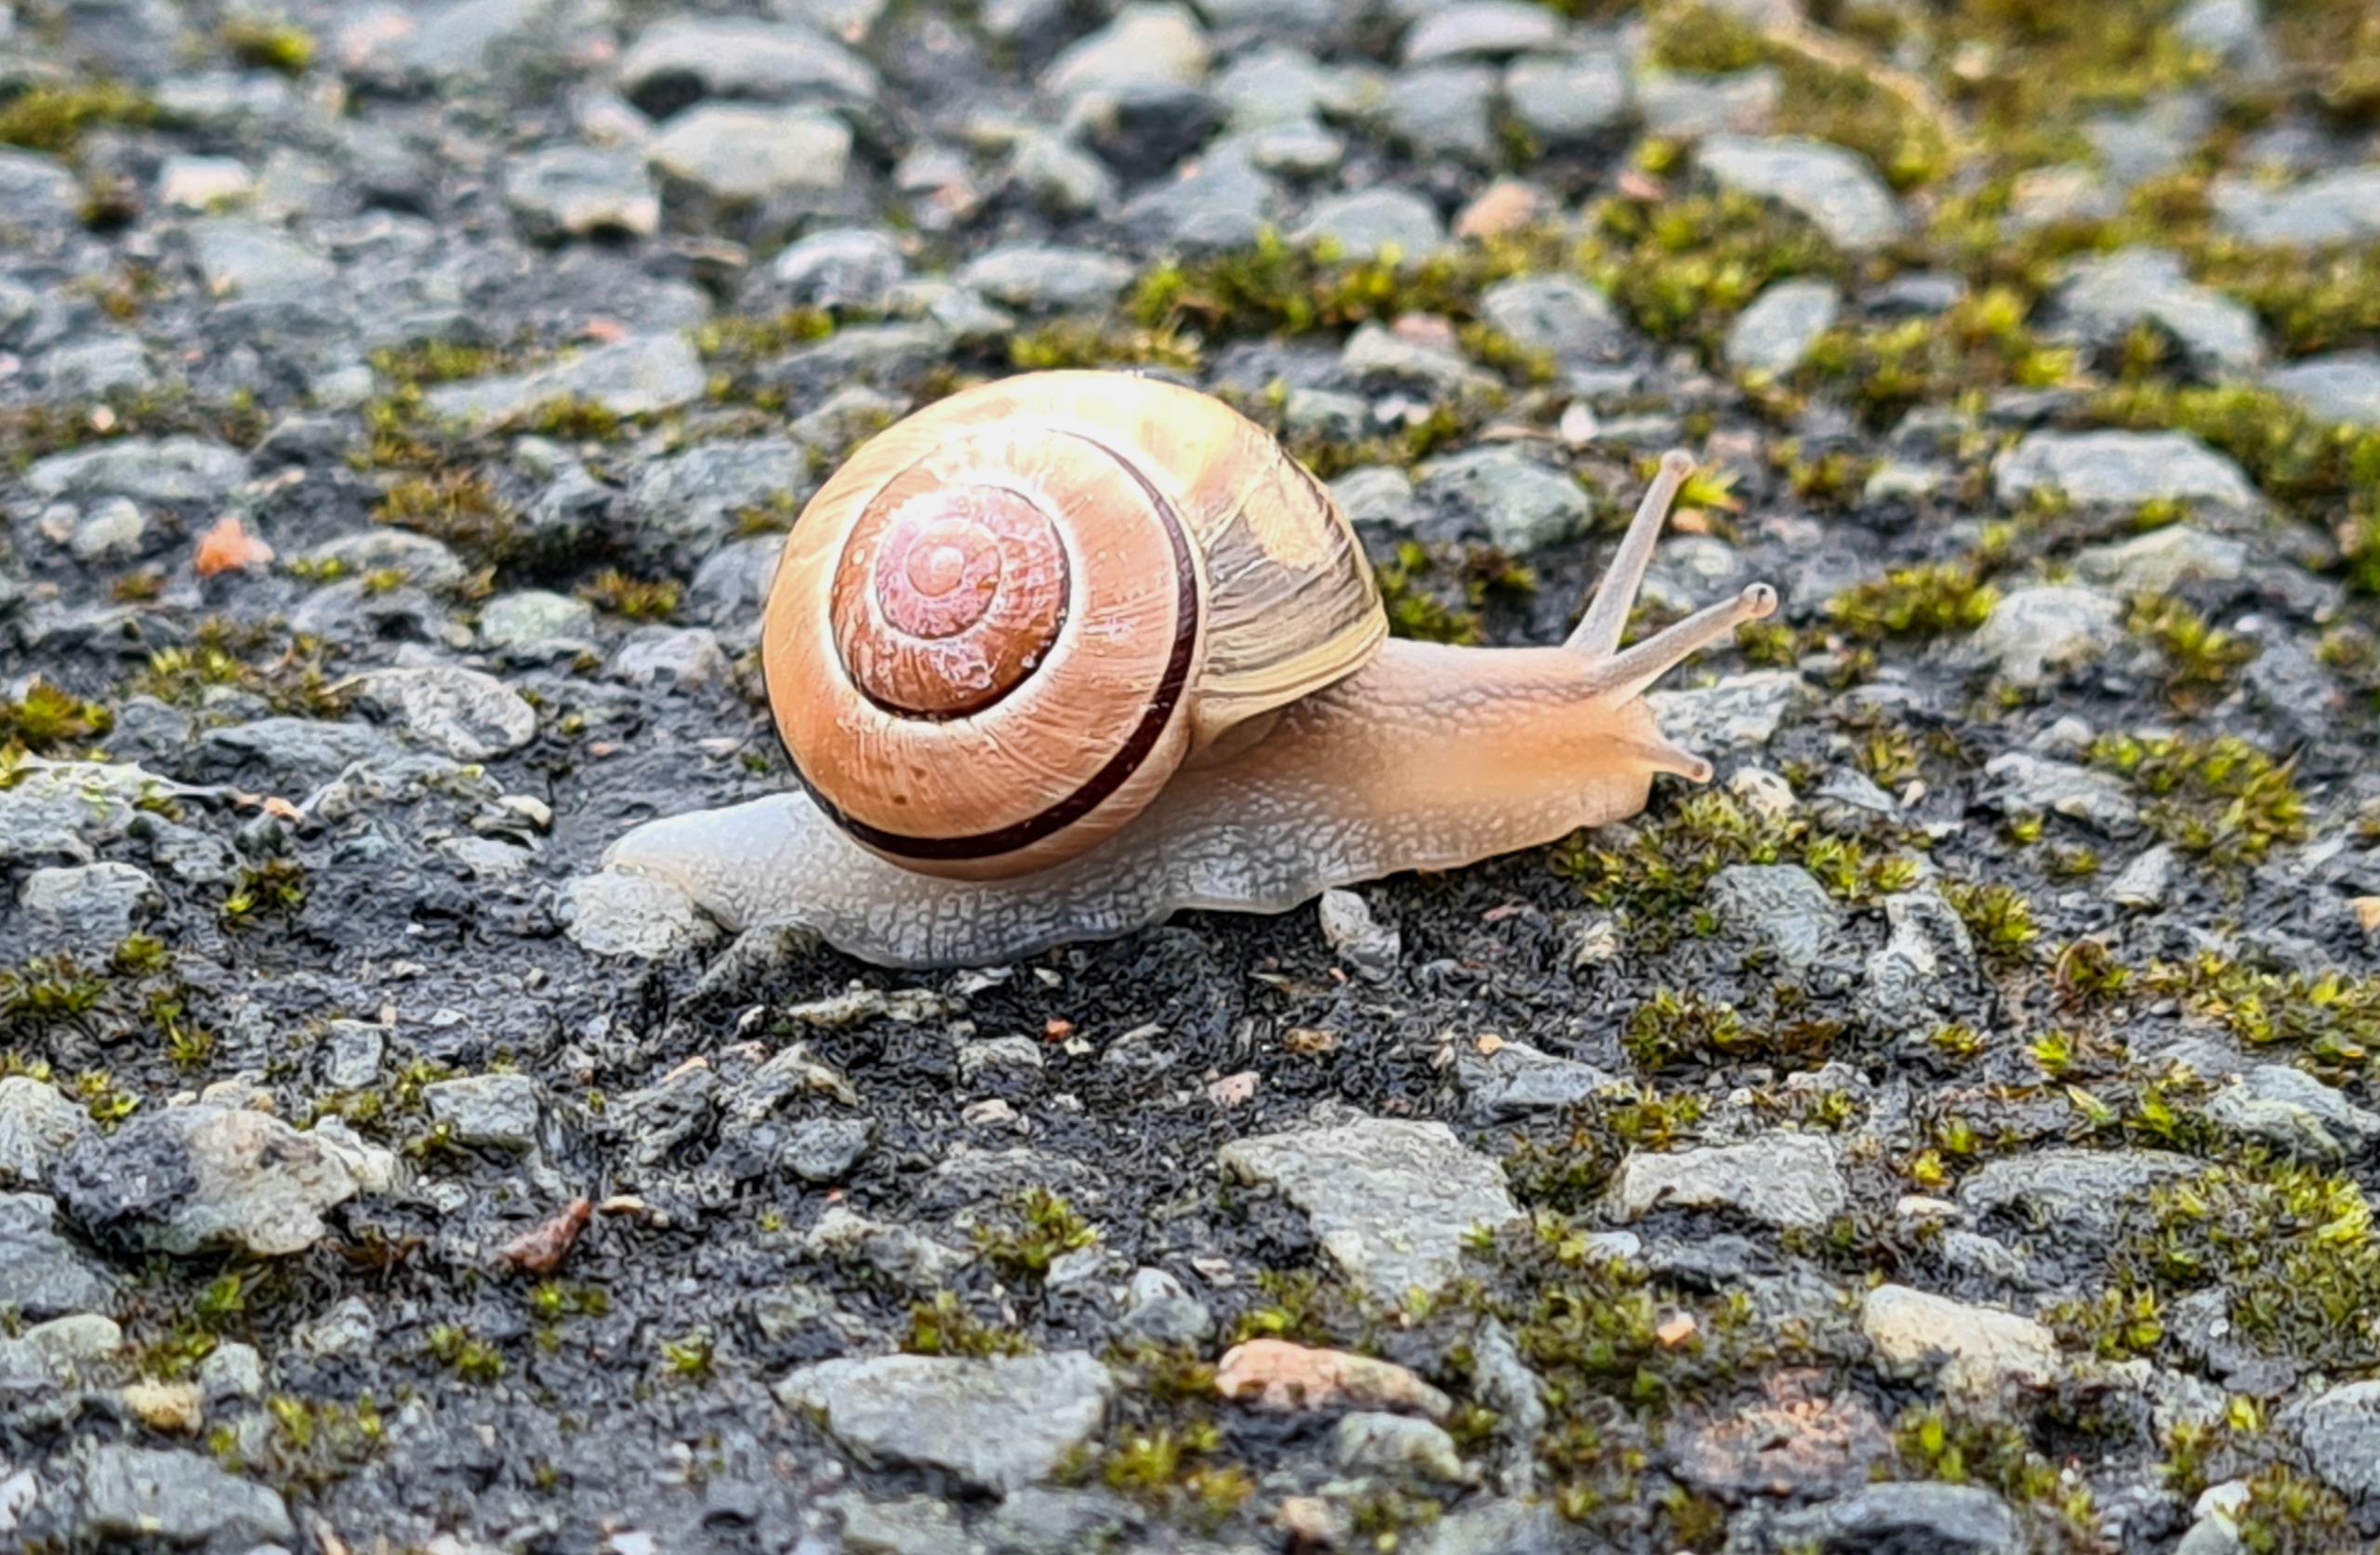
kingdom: Animalia
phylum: Mollusca
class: Gastropoda
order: Stylommatophora
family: Helicidae
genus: Cepaea
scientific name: Cepaea hortensis
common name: Havesnegl
